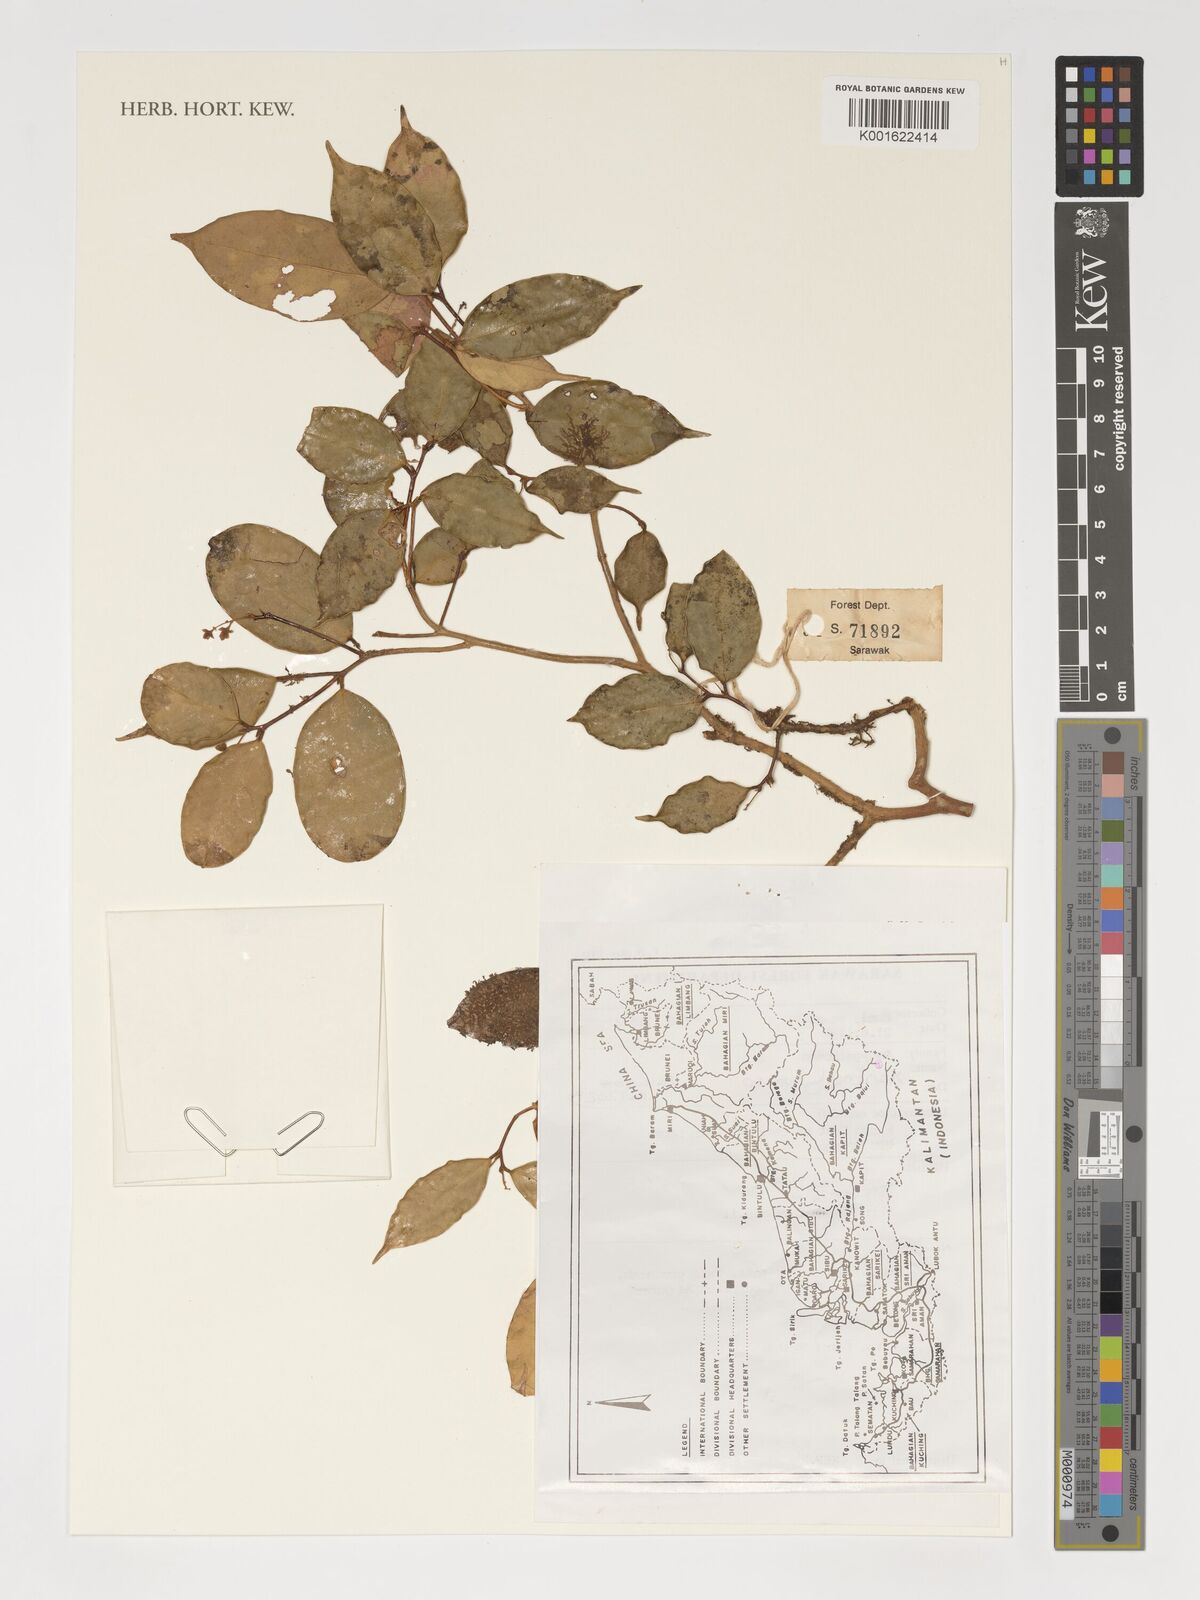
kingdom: Plantae
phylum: Tracheophyta
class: Magnoliopsida
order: Fabales
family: Polygalaceae
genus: Xanthophyllum
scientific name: Xanthophyllum
